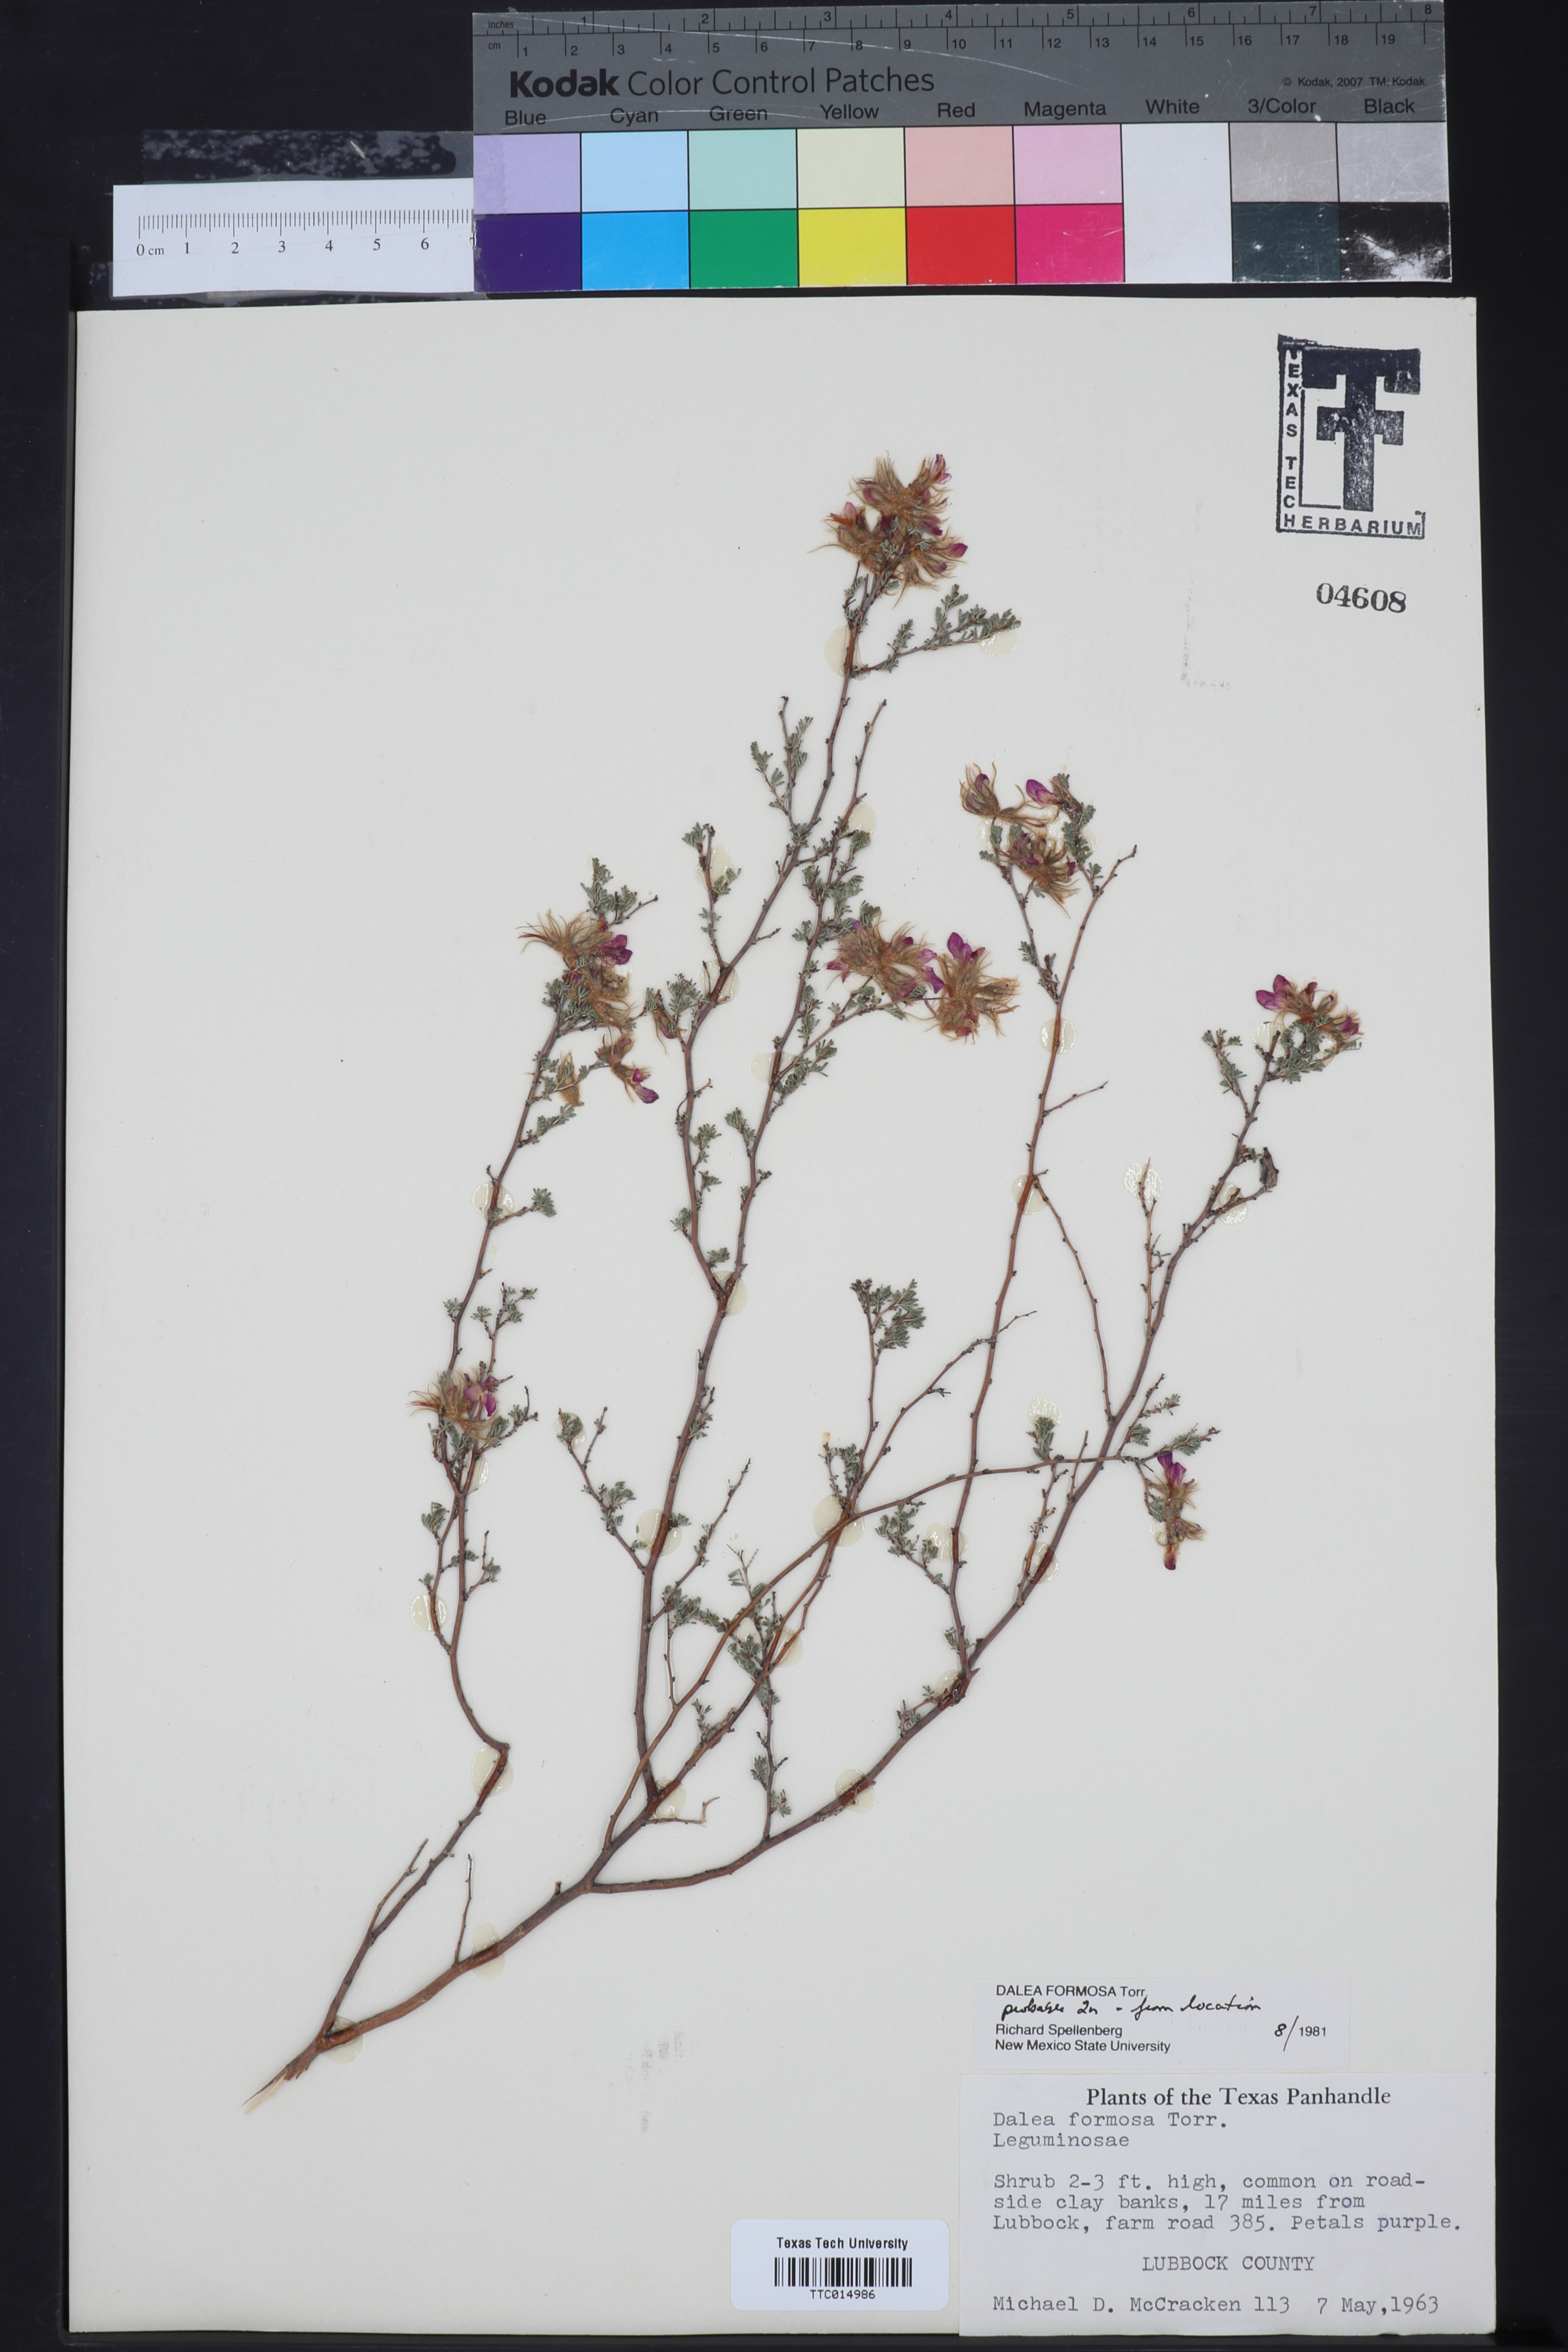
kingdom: Plantae
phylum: Tracheophyta
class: Magnoliopsida
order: Fabales
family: Fabaceae
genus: Dalea
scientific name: Dalea formosa
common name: Feather-plume dalea
